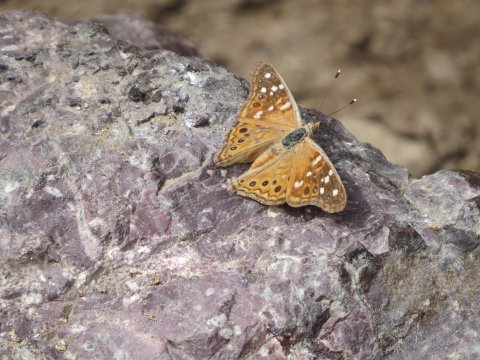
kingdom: Animalia
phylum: Arthropoda
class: Insecta
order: Lepidoptera
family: Nymphalidae
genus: Asterocampa
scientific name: Asterocampa leilia
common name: Empress Leilia
